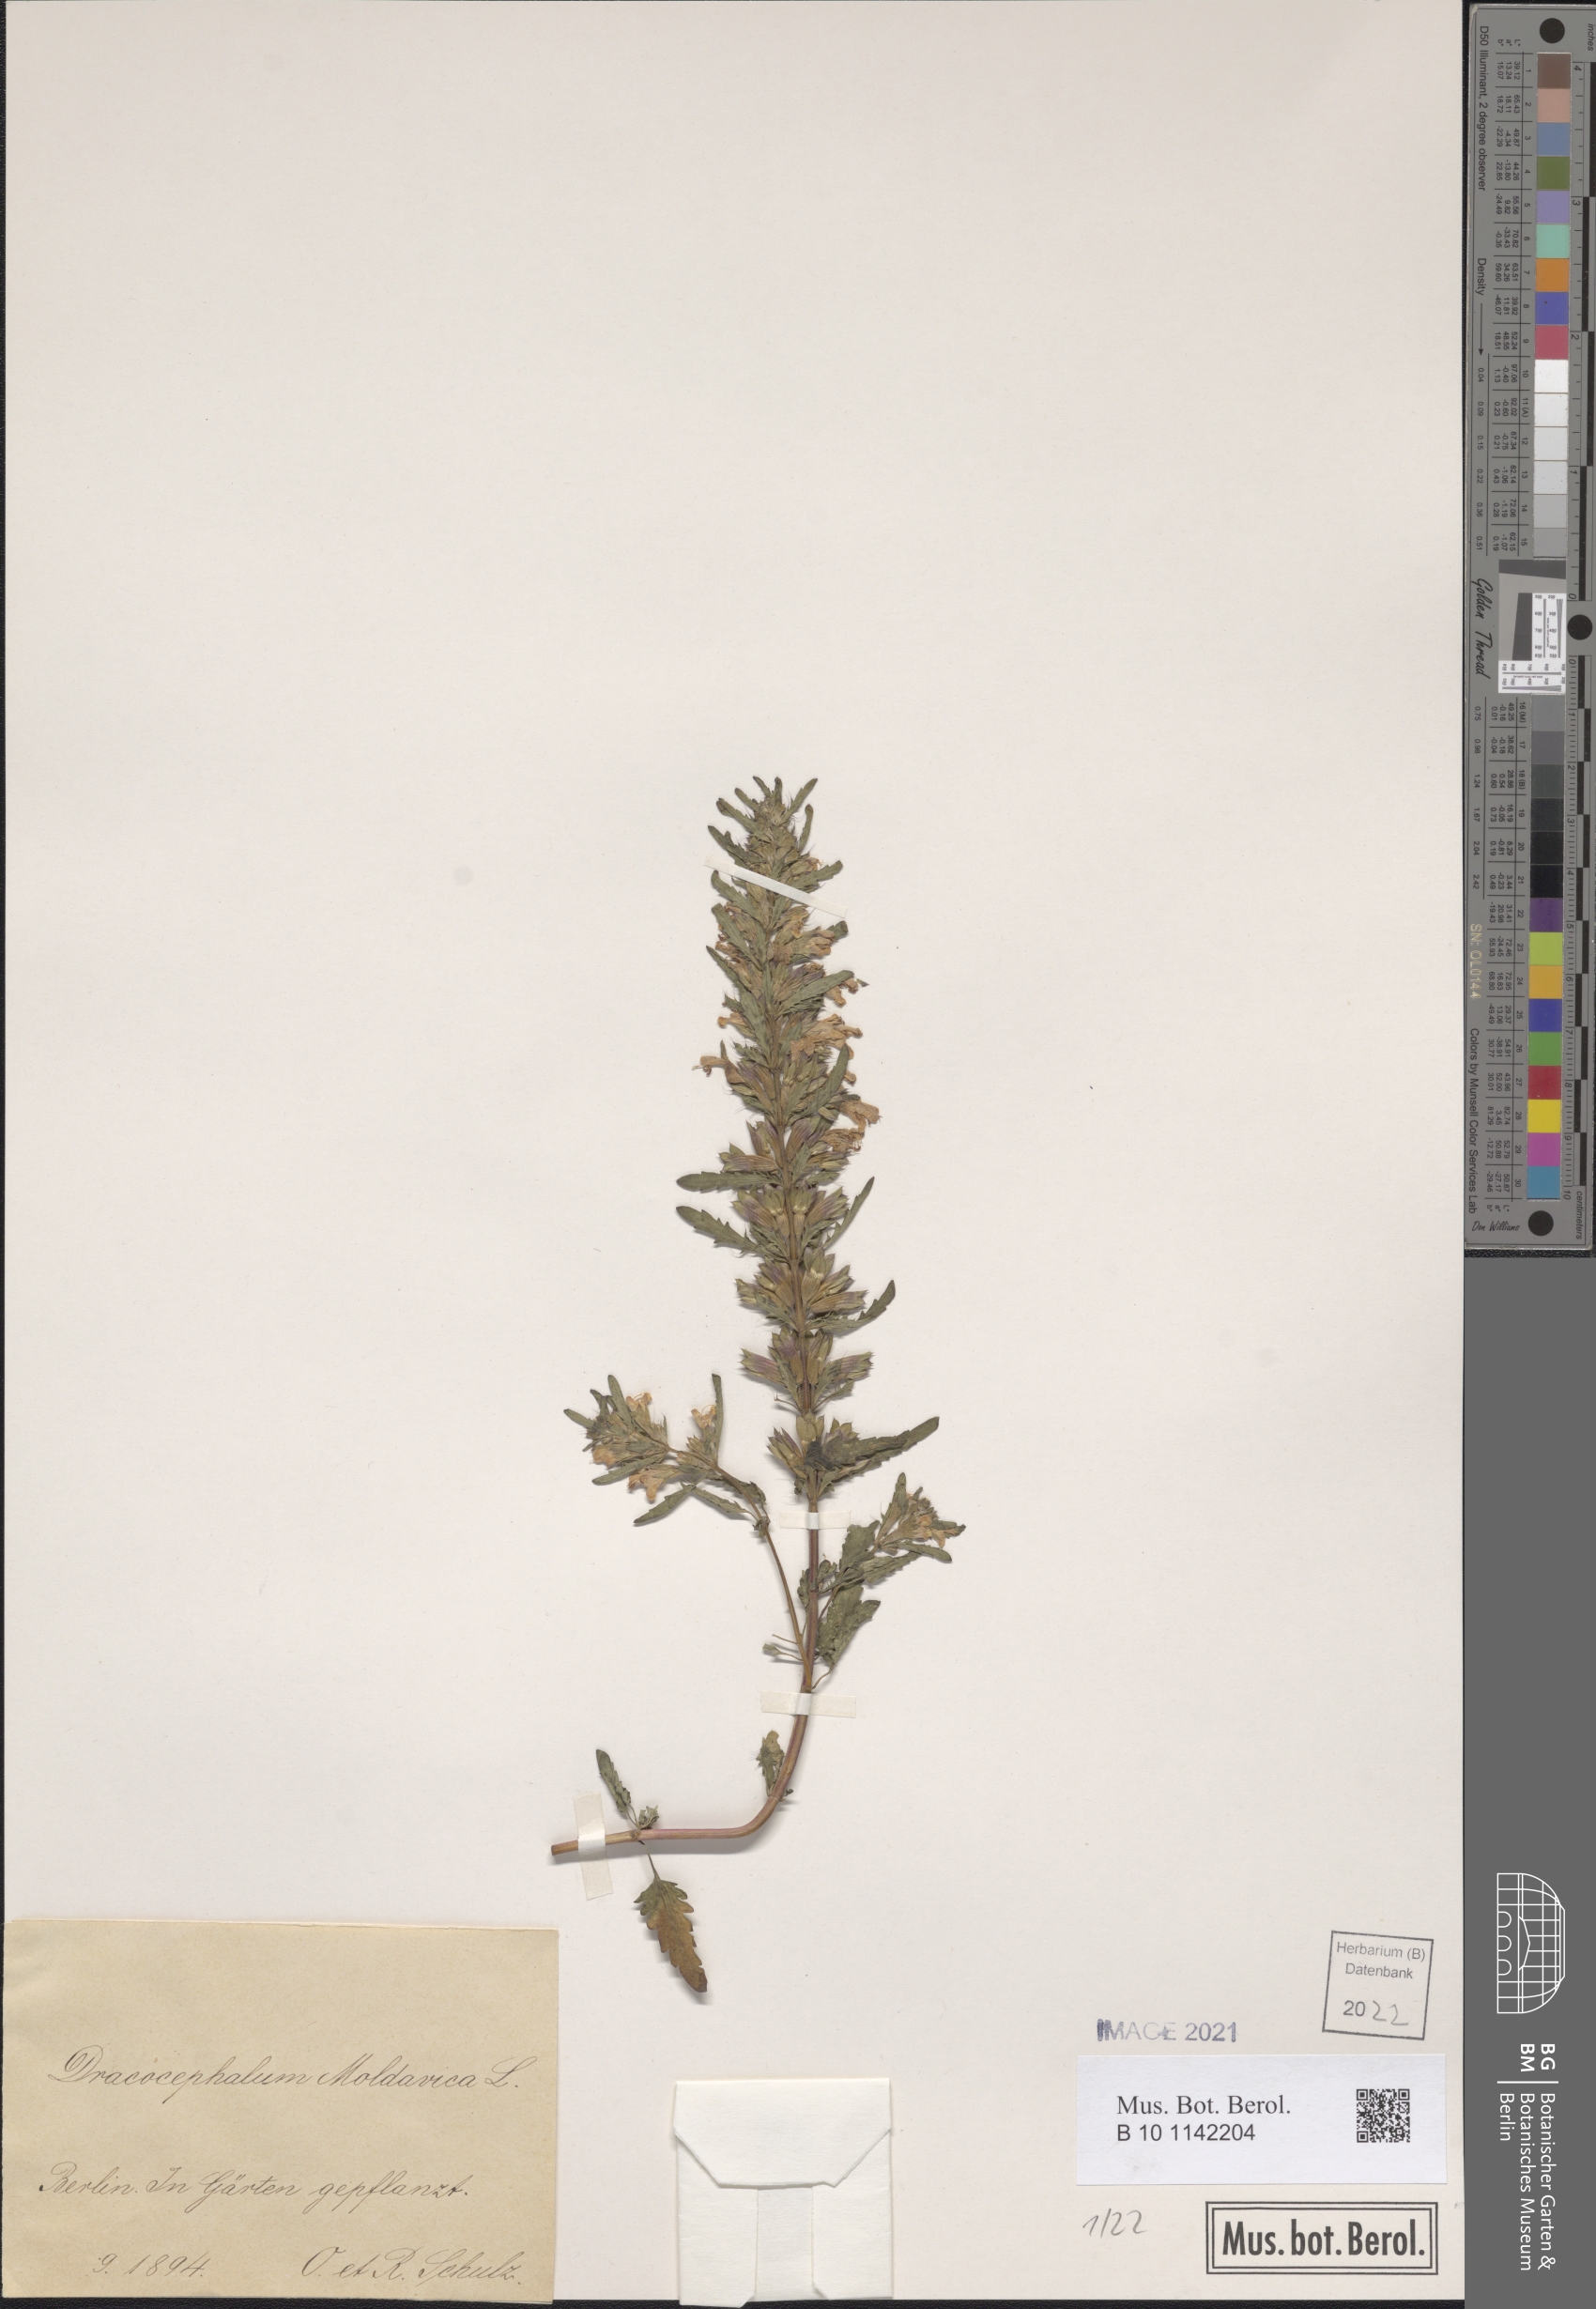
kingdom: Plantae
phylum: Tracheophyta
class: Magnoliopsida
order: Lamiales
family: Lamiaceae
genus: Dracocephalum
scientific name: Dracocephalum moldavica
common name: Moldavian dragonhead
